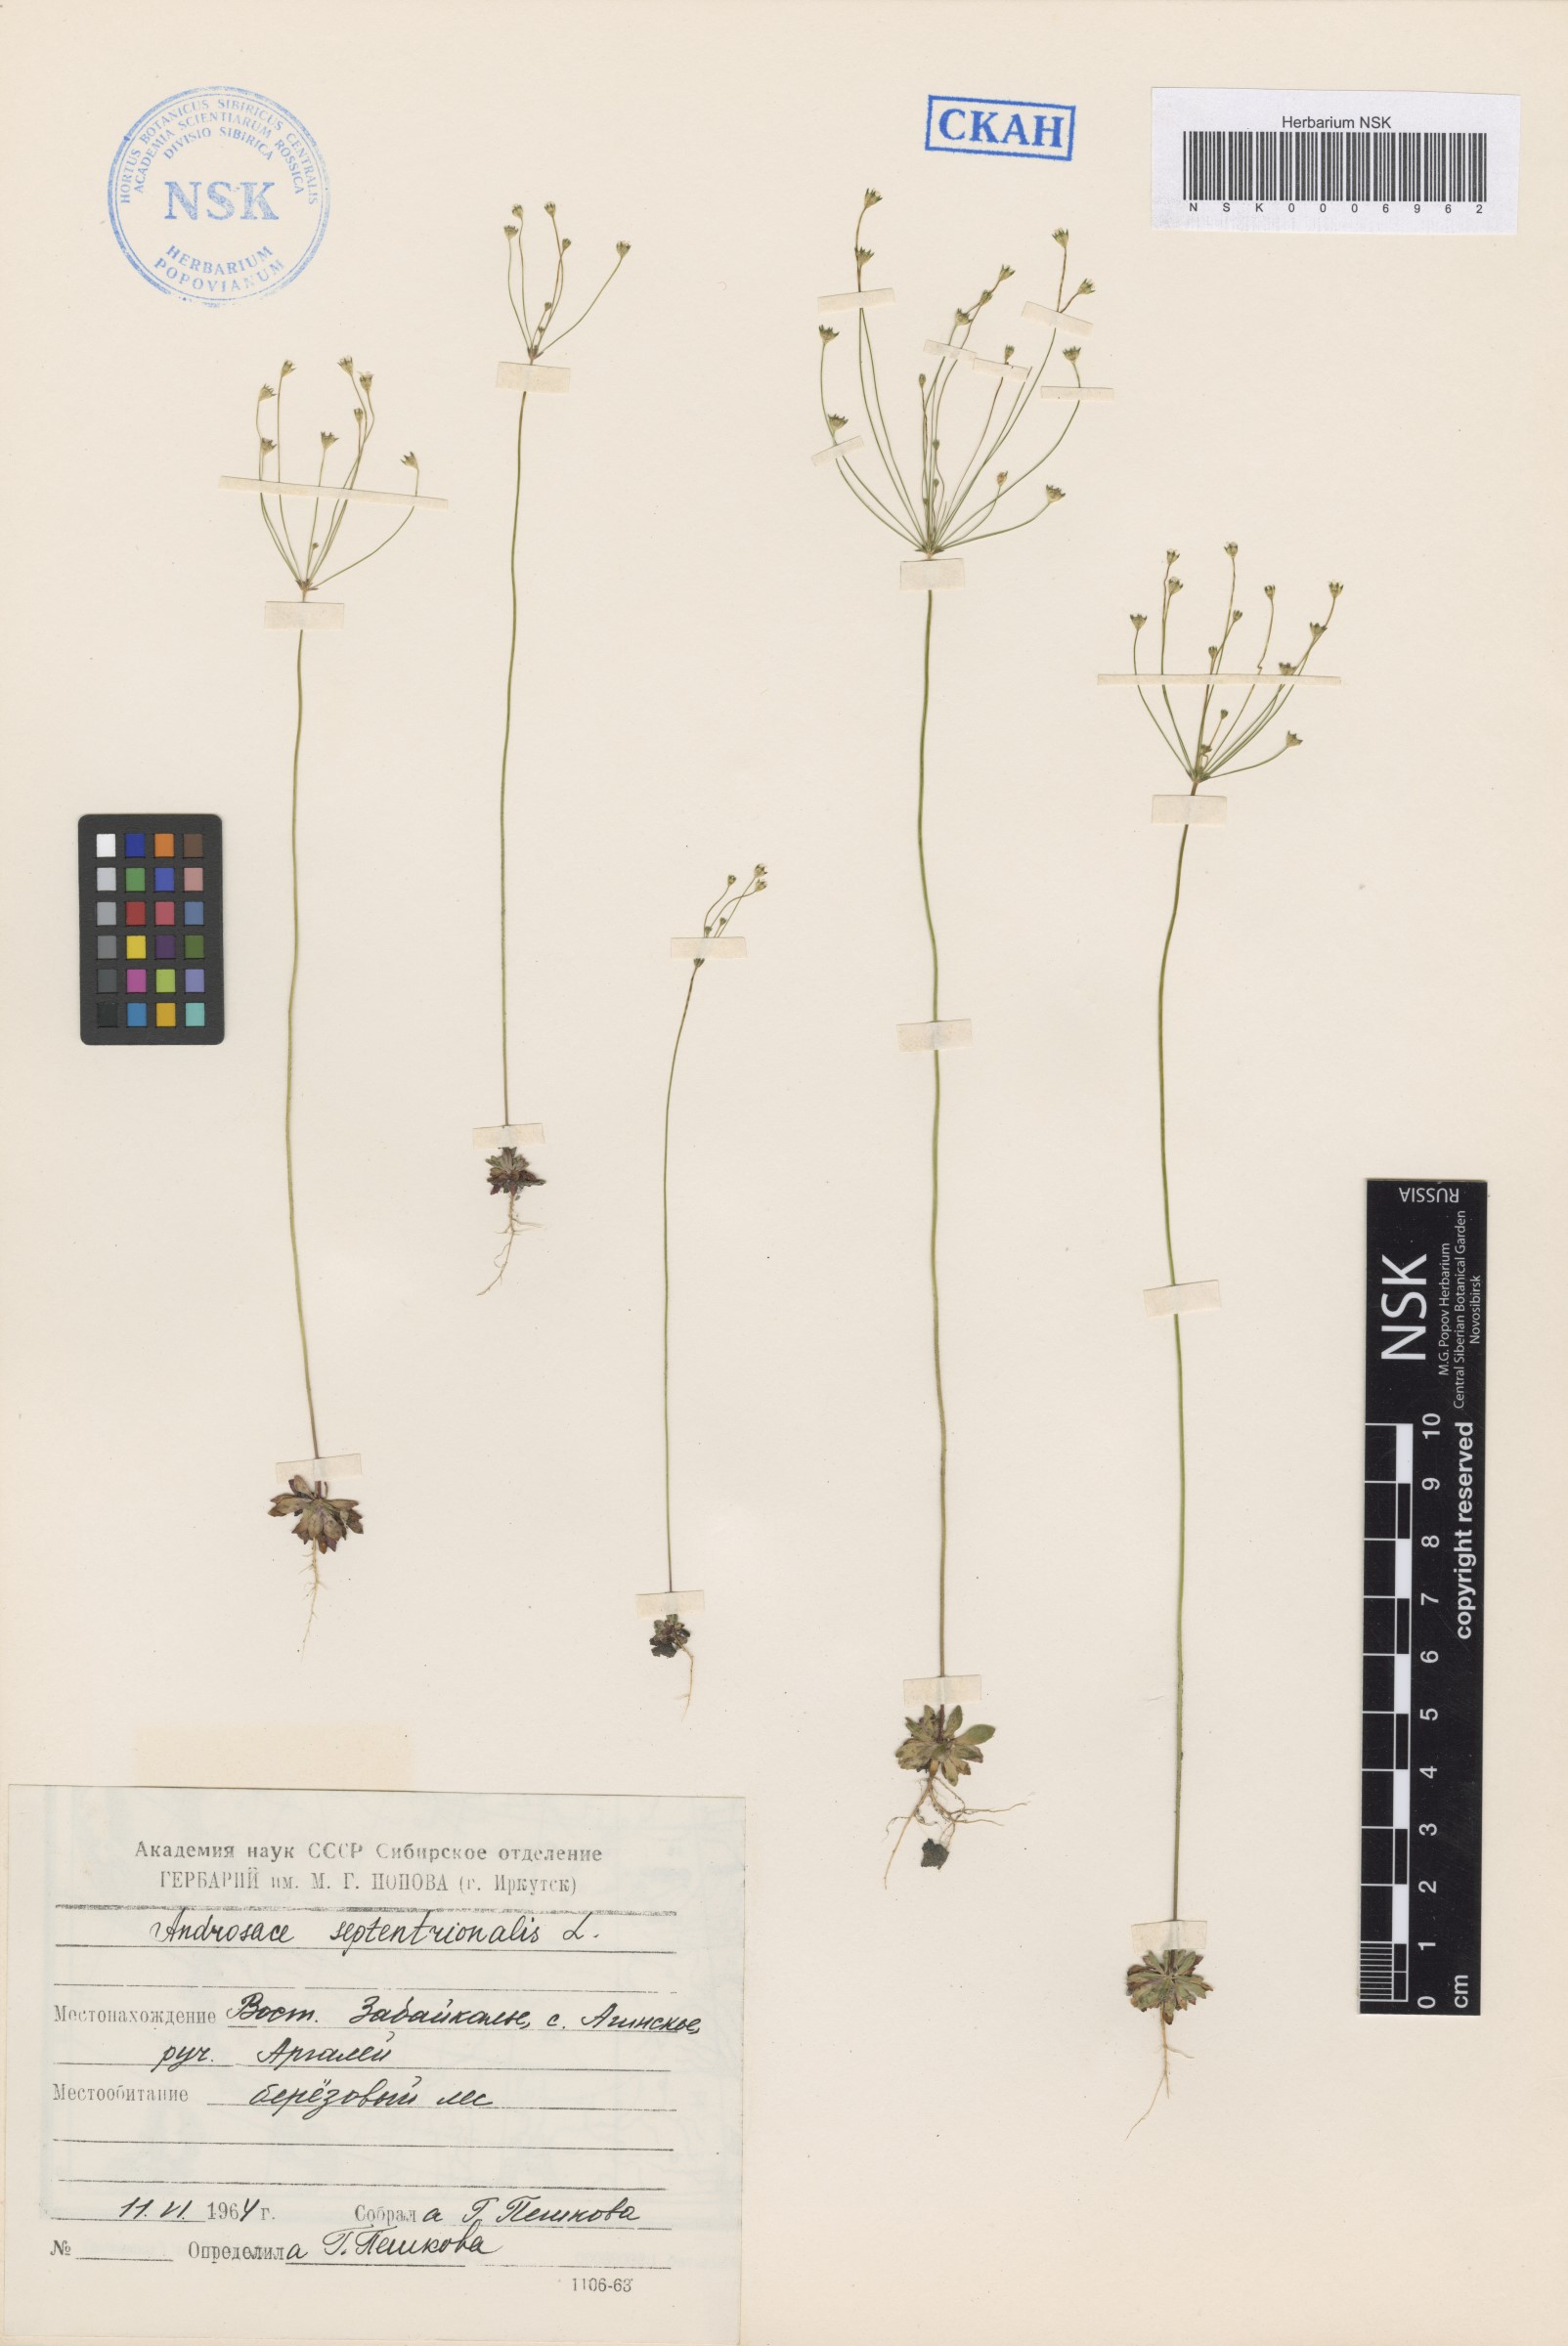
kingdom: Plantae
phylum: Tracheophyta
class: Magnoliopsida
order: Ericales
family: Primulaceae
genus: Androsace
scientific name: Androsace septentrionalis
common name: Hairy northern fairy-candelabra
